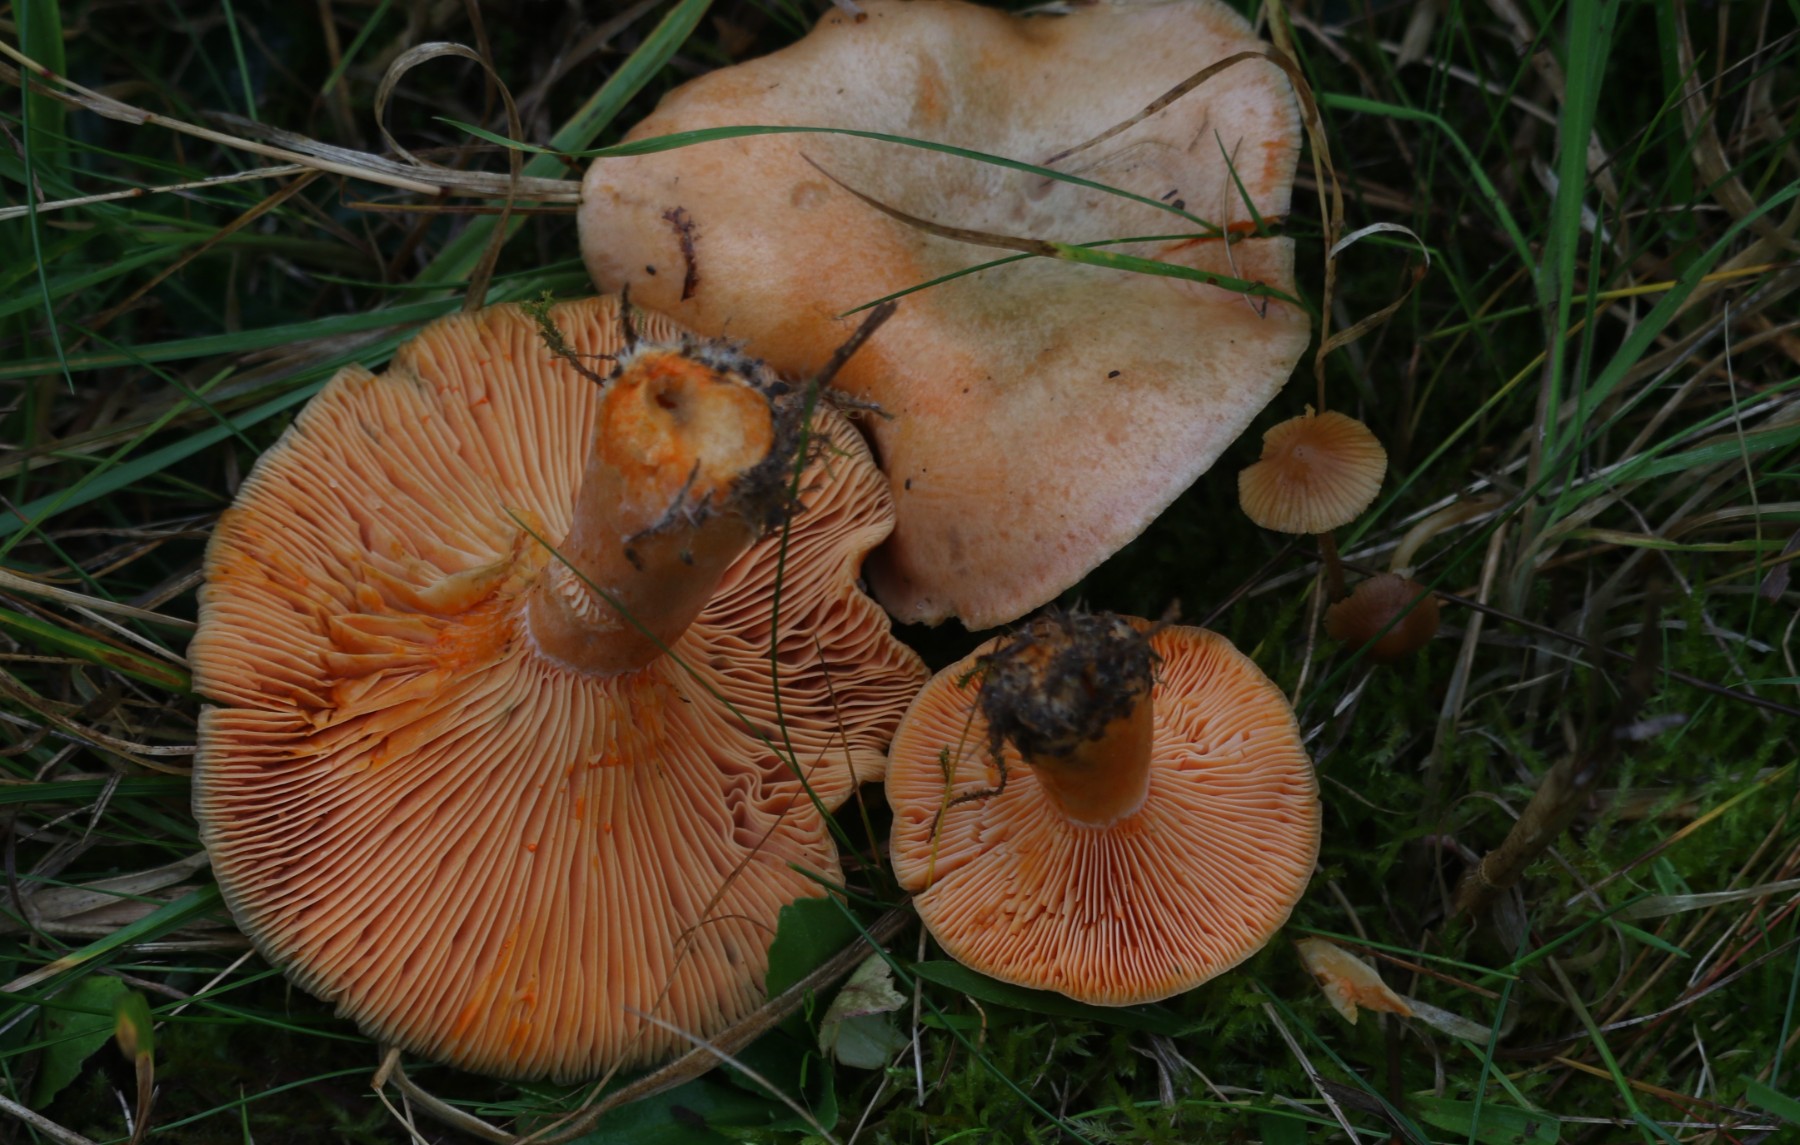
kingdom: Fungi
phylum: Basidiomycota
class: Agaricomycetes
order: Russulales
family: Russulaceae
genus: Lactarius
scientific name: Lactarius deterrimus
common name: gran-mælkehat
